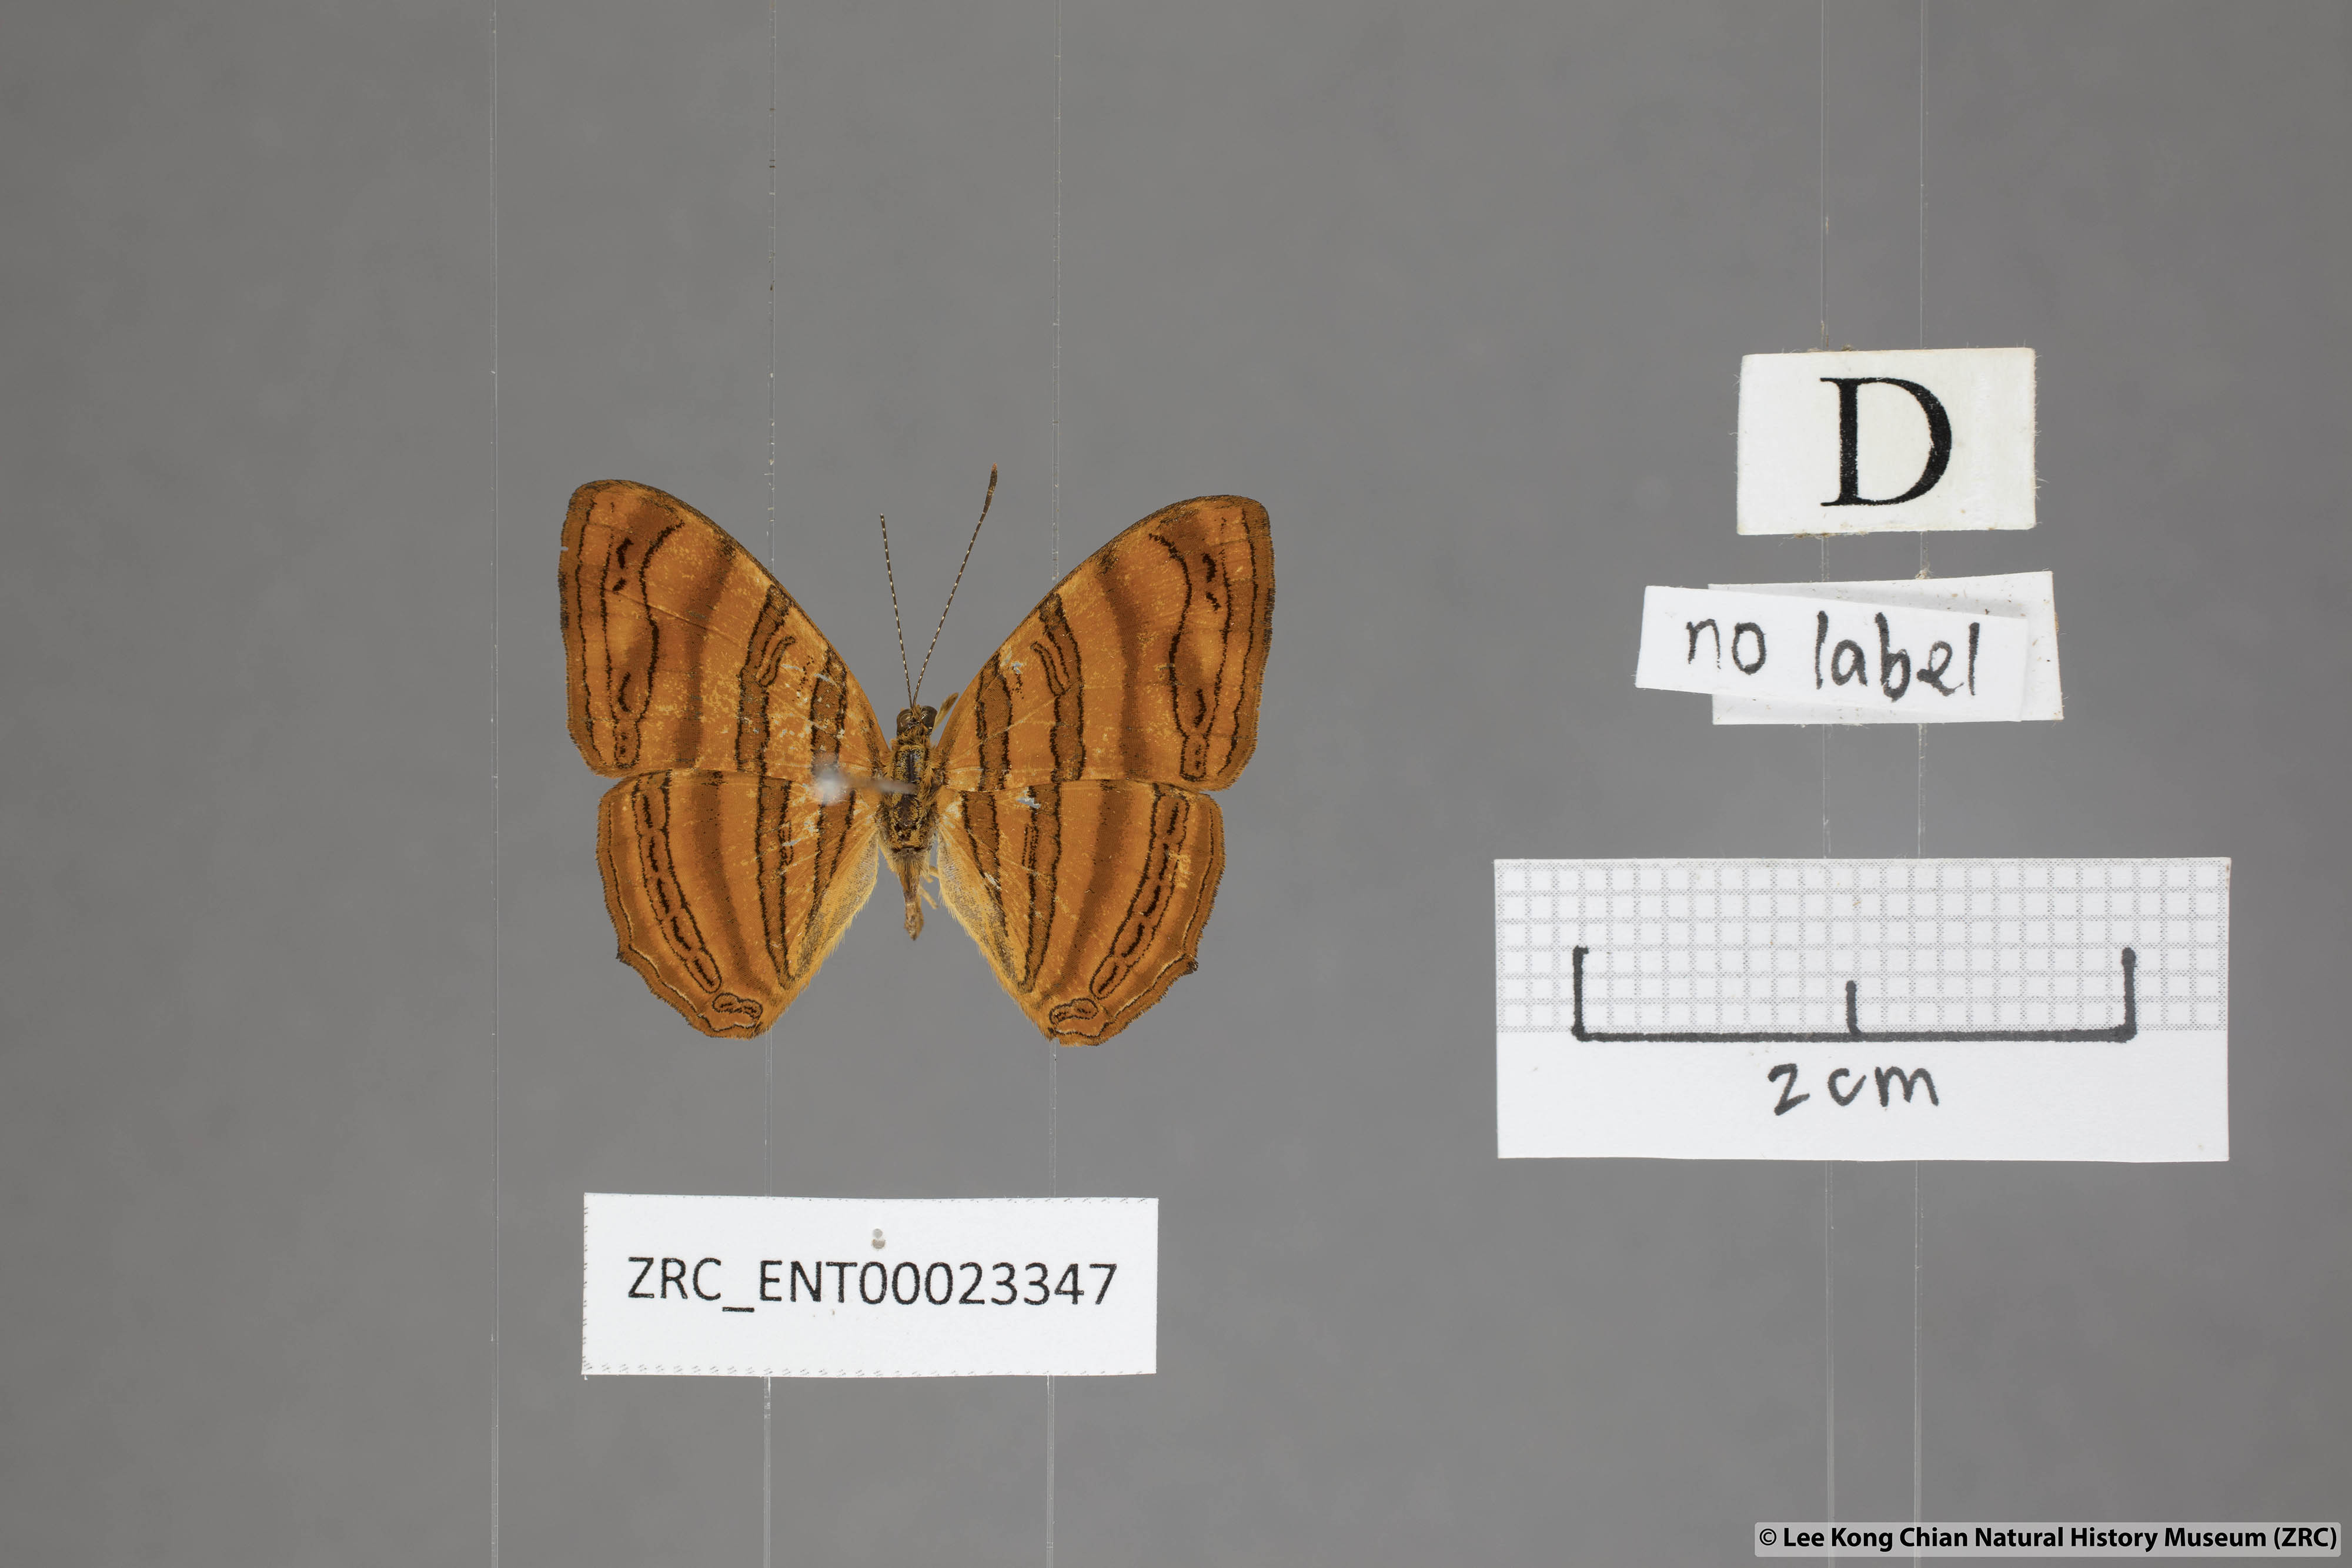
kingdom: Animalia
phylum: Arthropoda
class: Insecta
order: Lepidoptera
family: Nymphalidae
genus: Chersonesia
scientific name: Chersonesia intermedia
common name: Intermediate maplet
